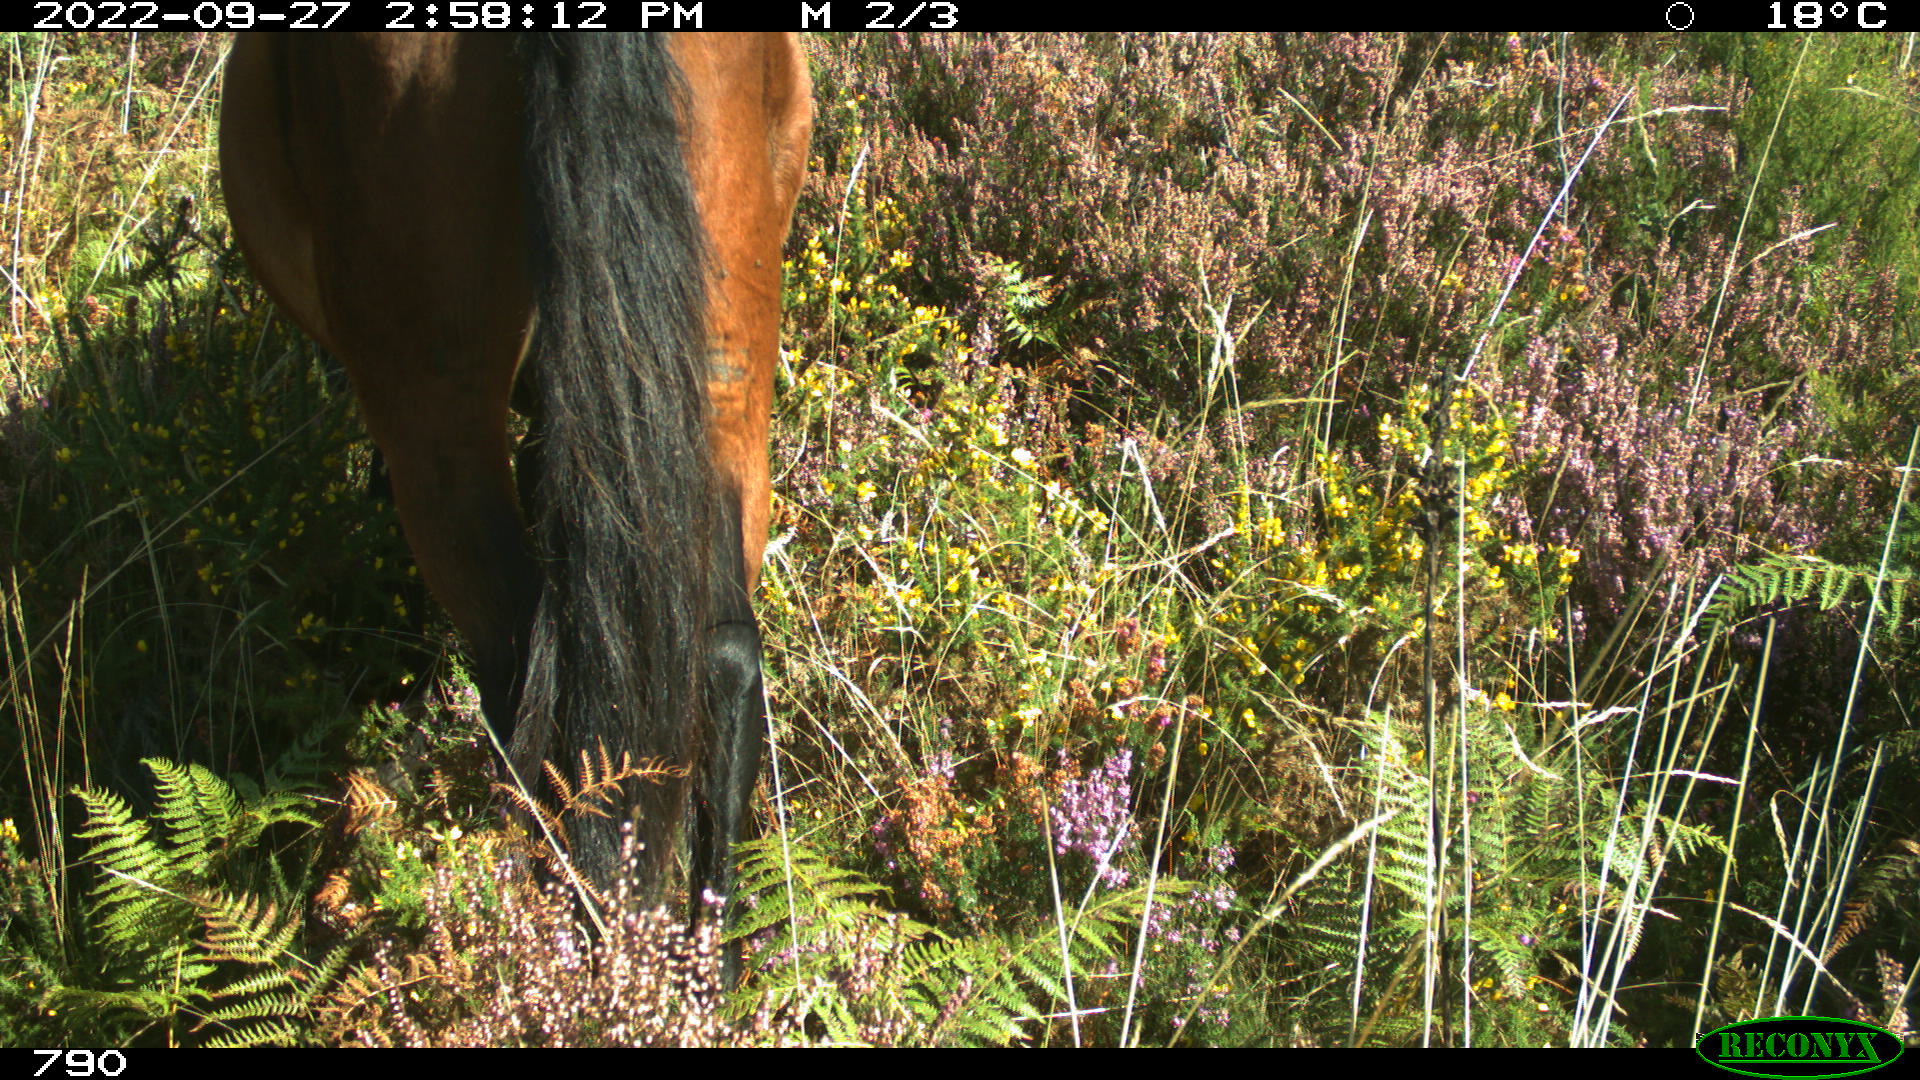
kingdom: Animalia
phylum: Chordata
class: Mammalia
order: Perissodactyla
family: Equidae
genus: Equus
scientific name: Equus caballus
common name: Horse
